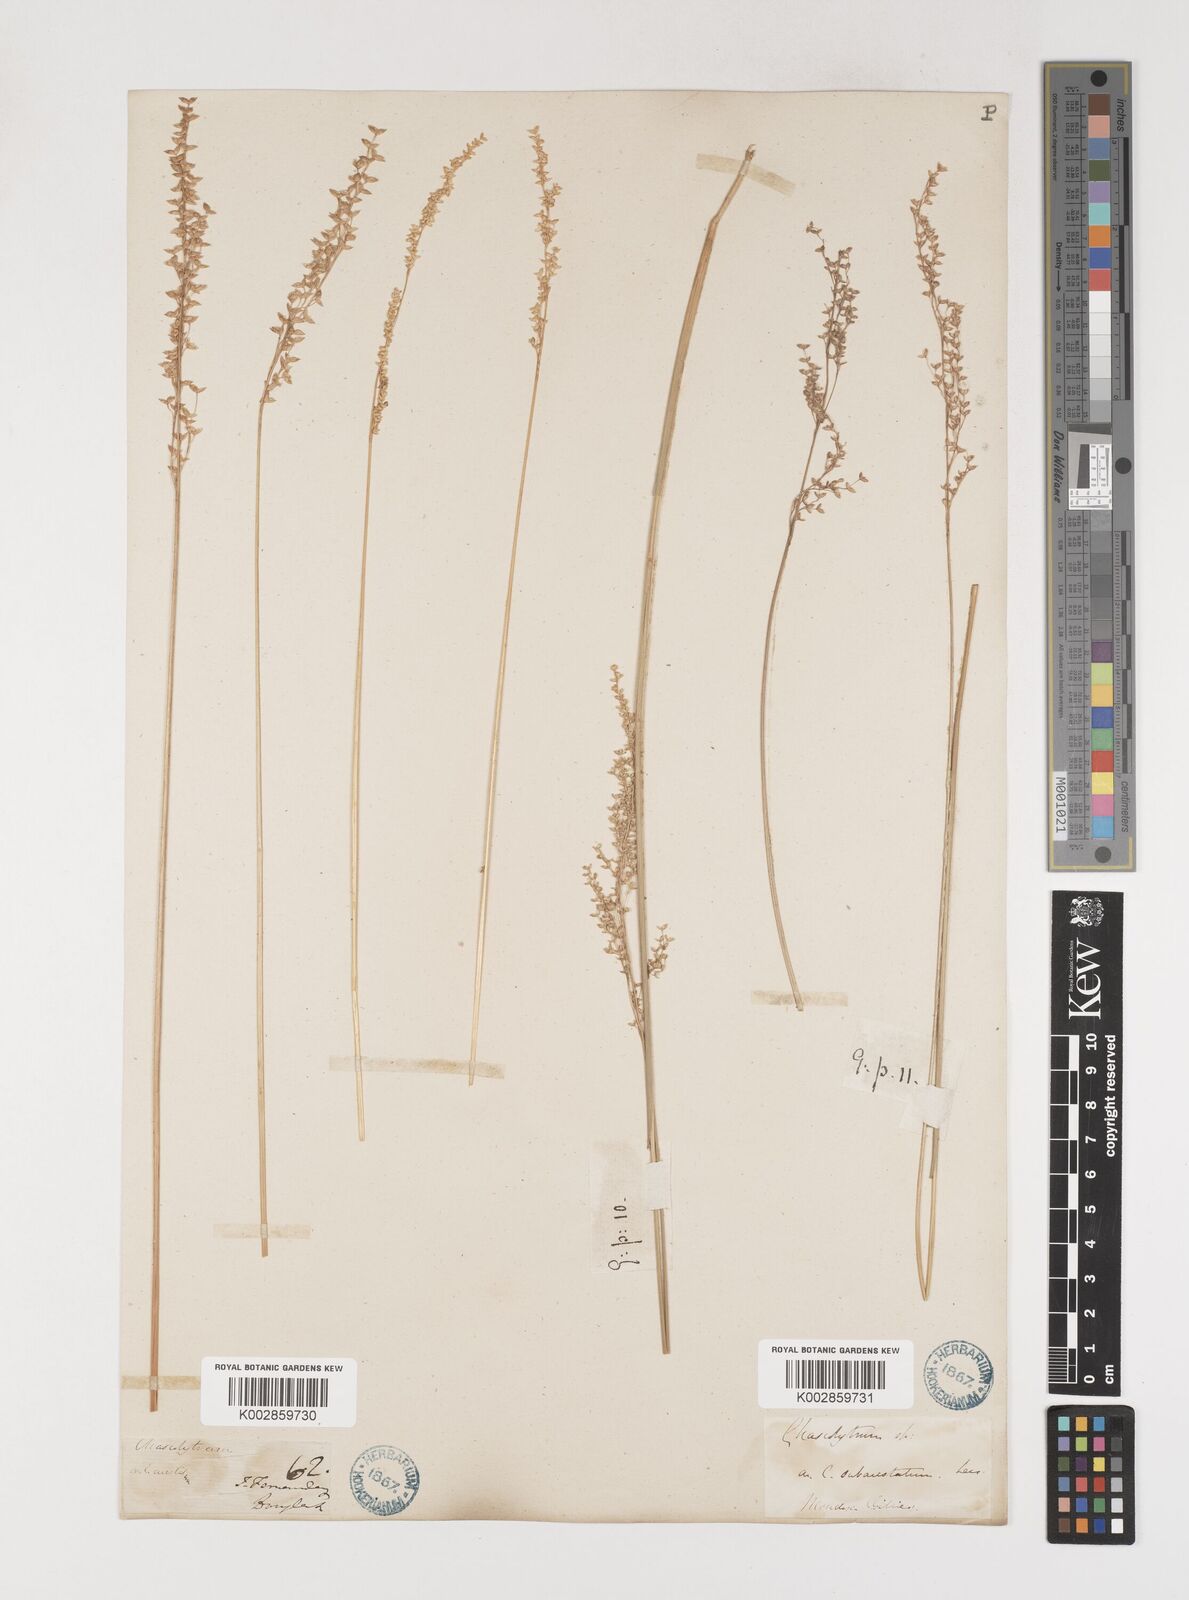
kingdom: Plantae
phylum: Tracheophyta
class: Liliopsida
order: Poales
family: Poaceae
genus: Chascolytrum
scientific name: Chascolytrum subaristatum
